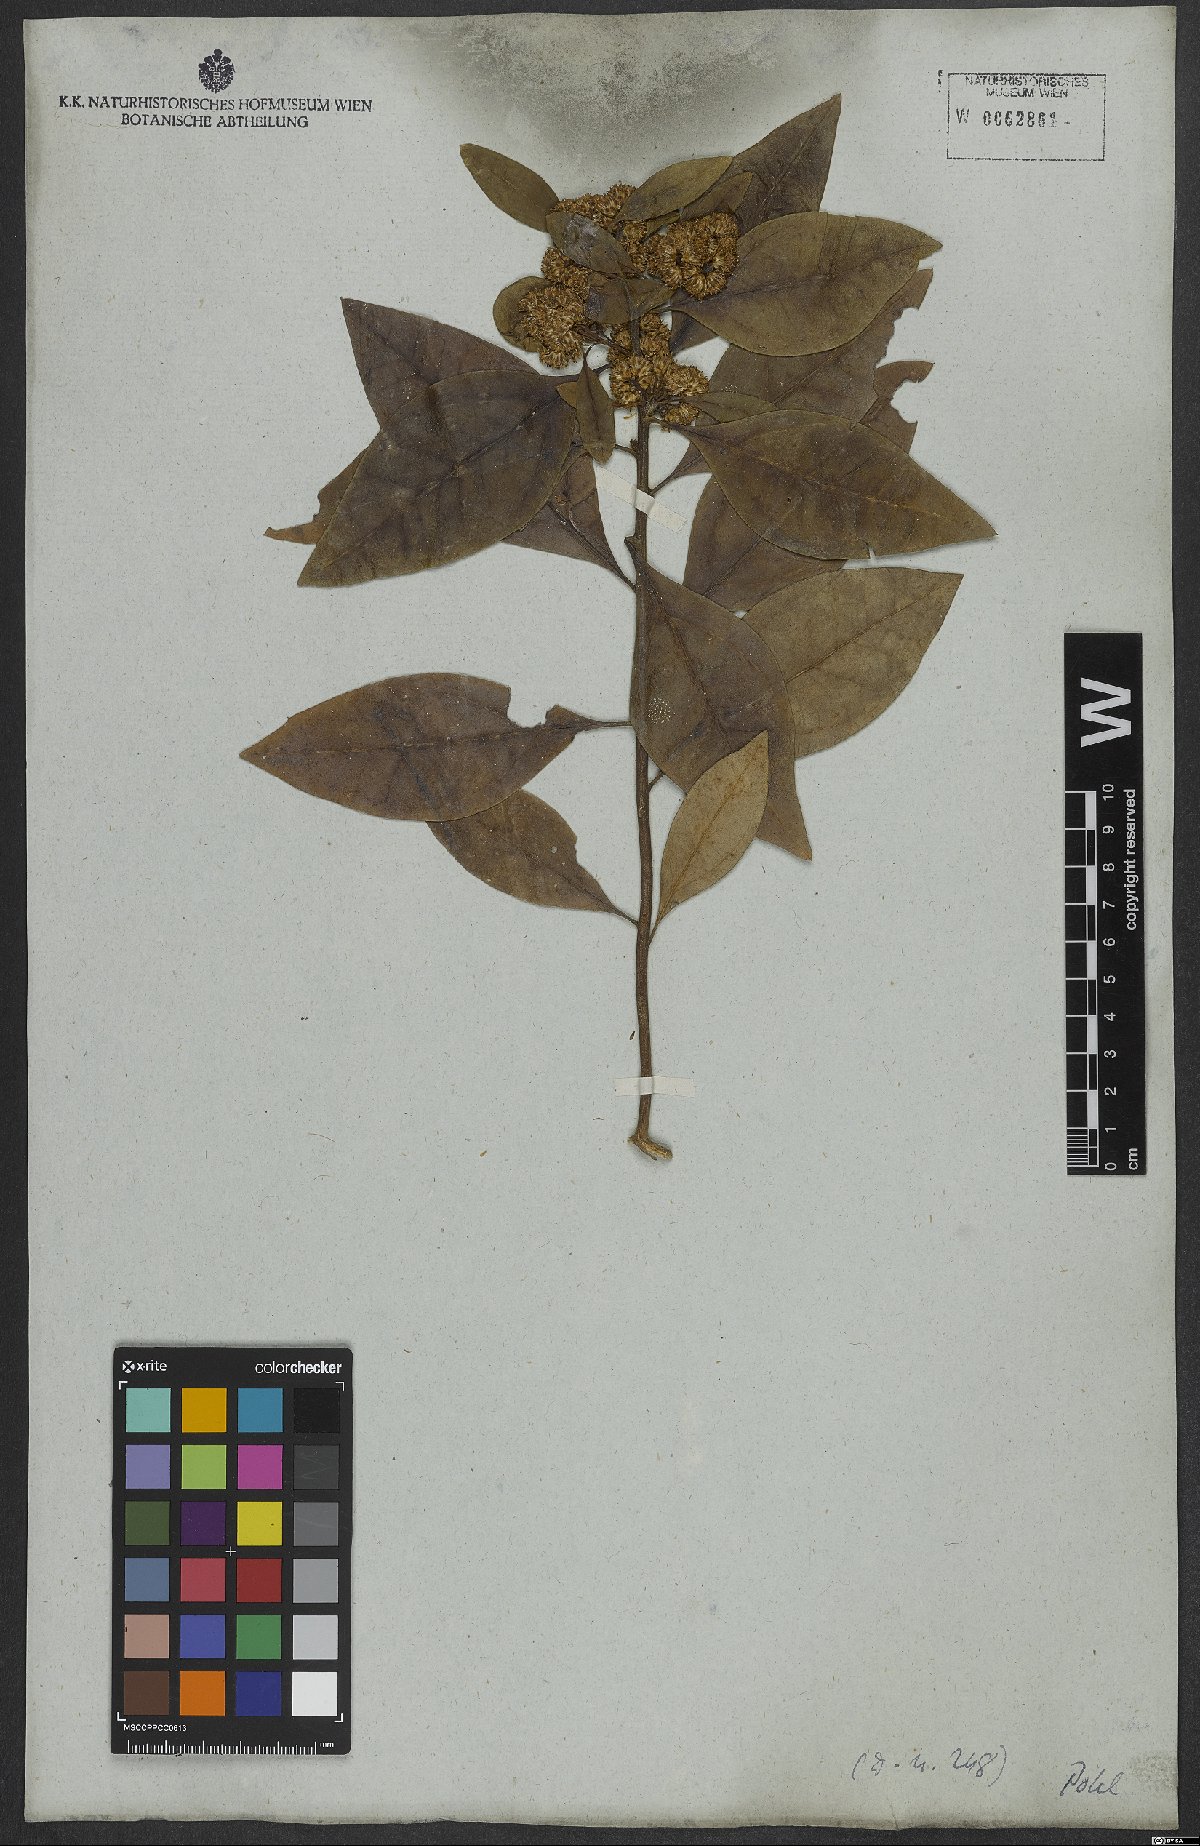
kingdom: Plantae
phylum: Tracheophyta
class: Magnoliopsida
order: Asterales
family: Asteraceae
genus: Baccharis
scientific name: Baccharis
